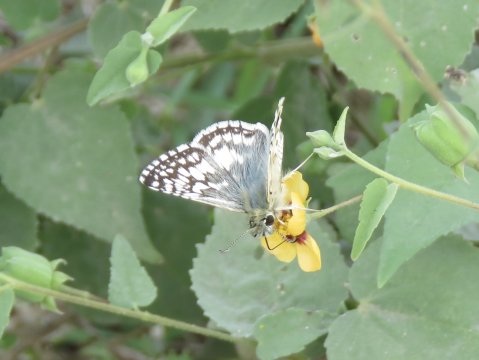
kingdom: Animalia
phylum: Arthropoda
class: Insecta
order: Lepidoptera
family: Hesperiidae
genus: Pyrgus
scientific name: Pyrgus communis
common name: White Checkered-Skipper
